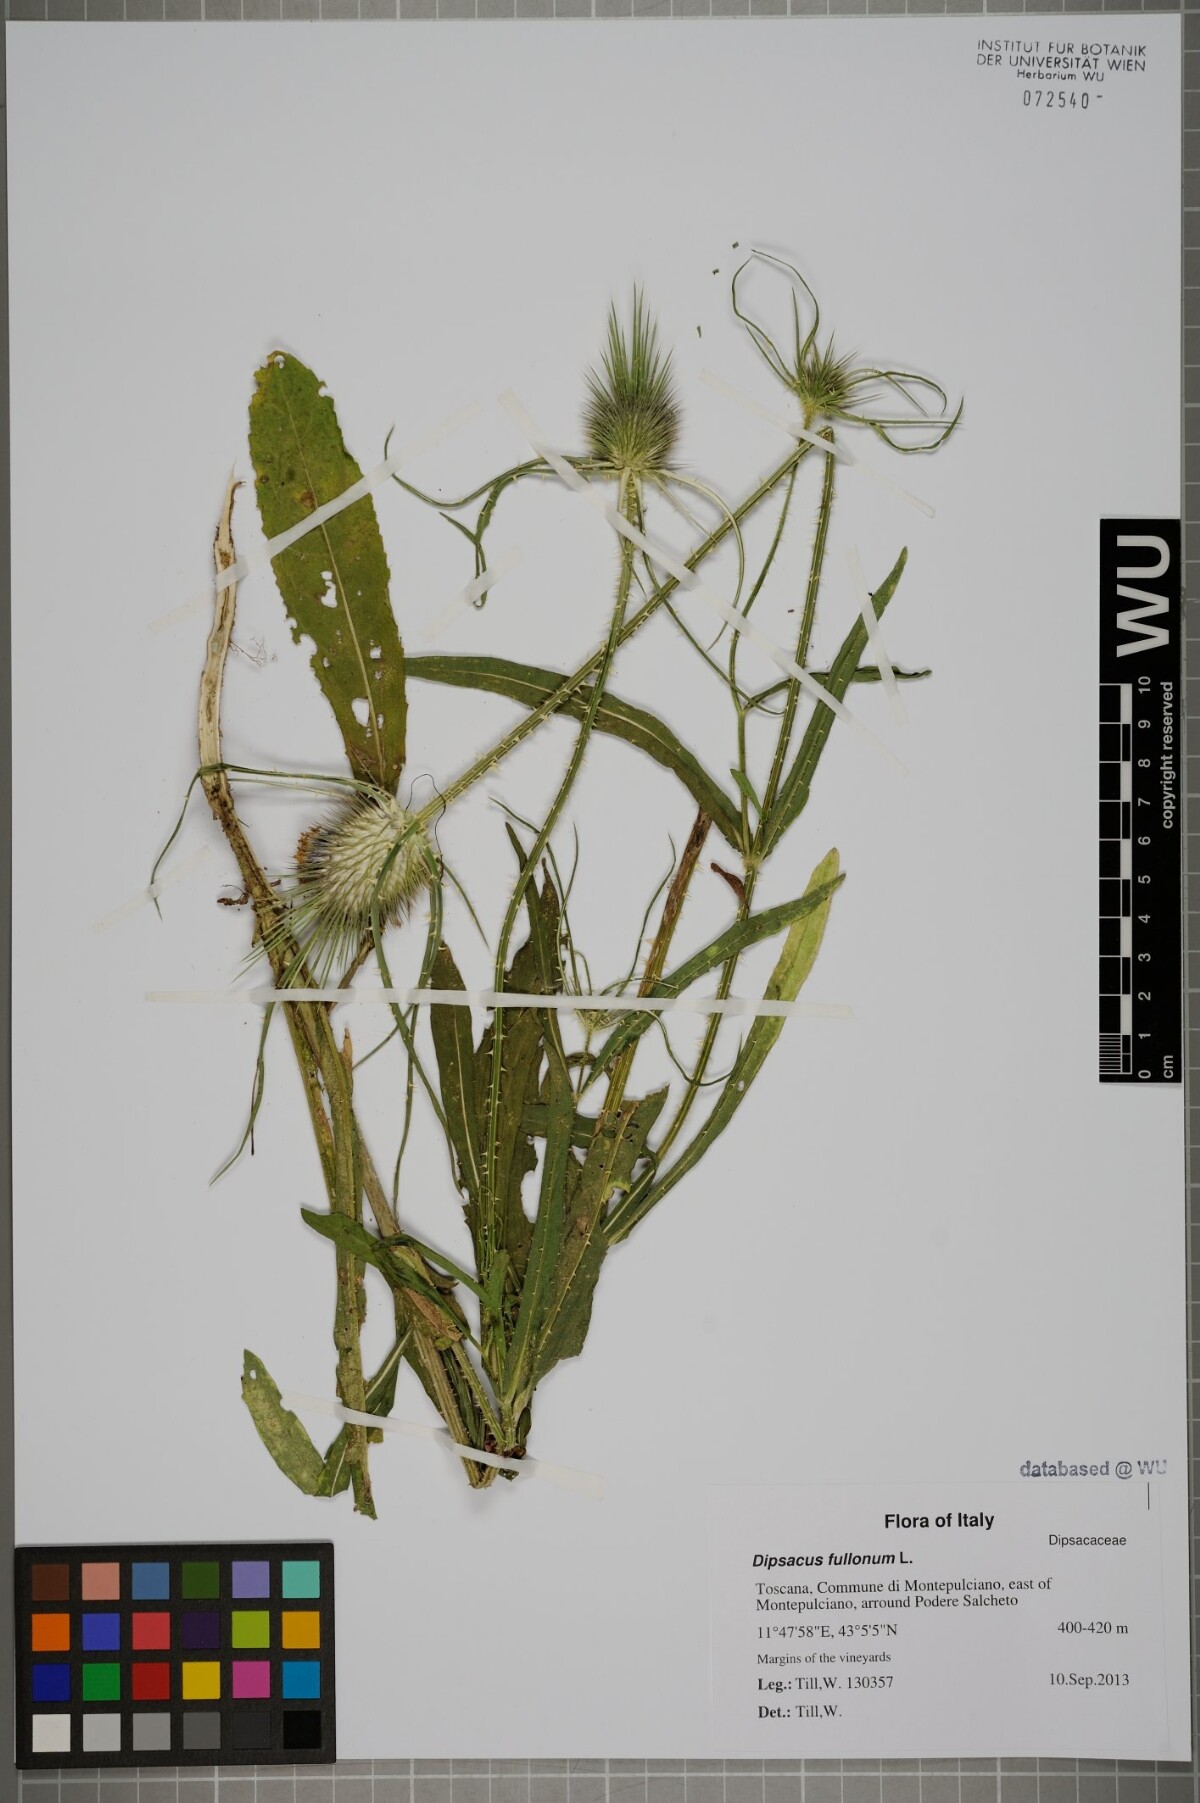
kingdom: Plantae
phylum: Tracheophyta
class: Magnoliopsida
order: Dipsacales
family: Caprifoliaceae
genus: Dipsacus
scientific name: Dipsacus fullonum
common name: Teasel
